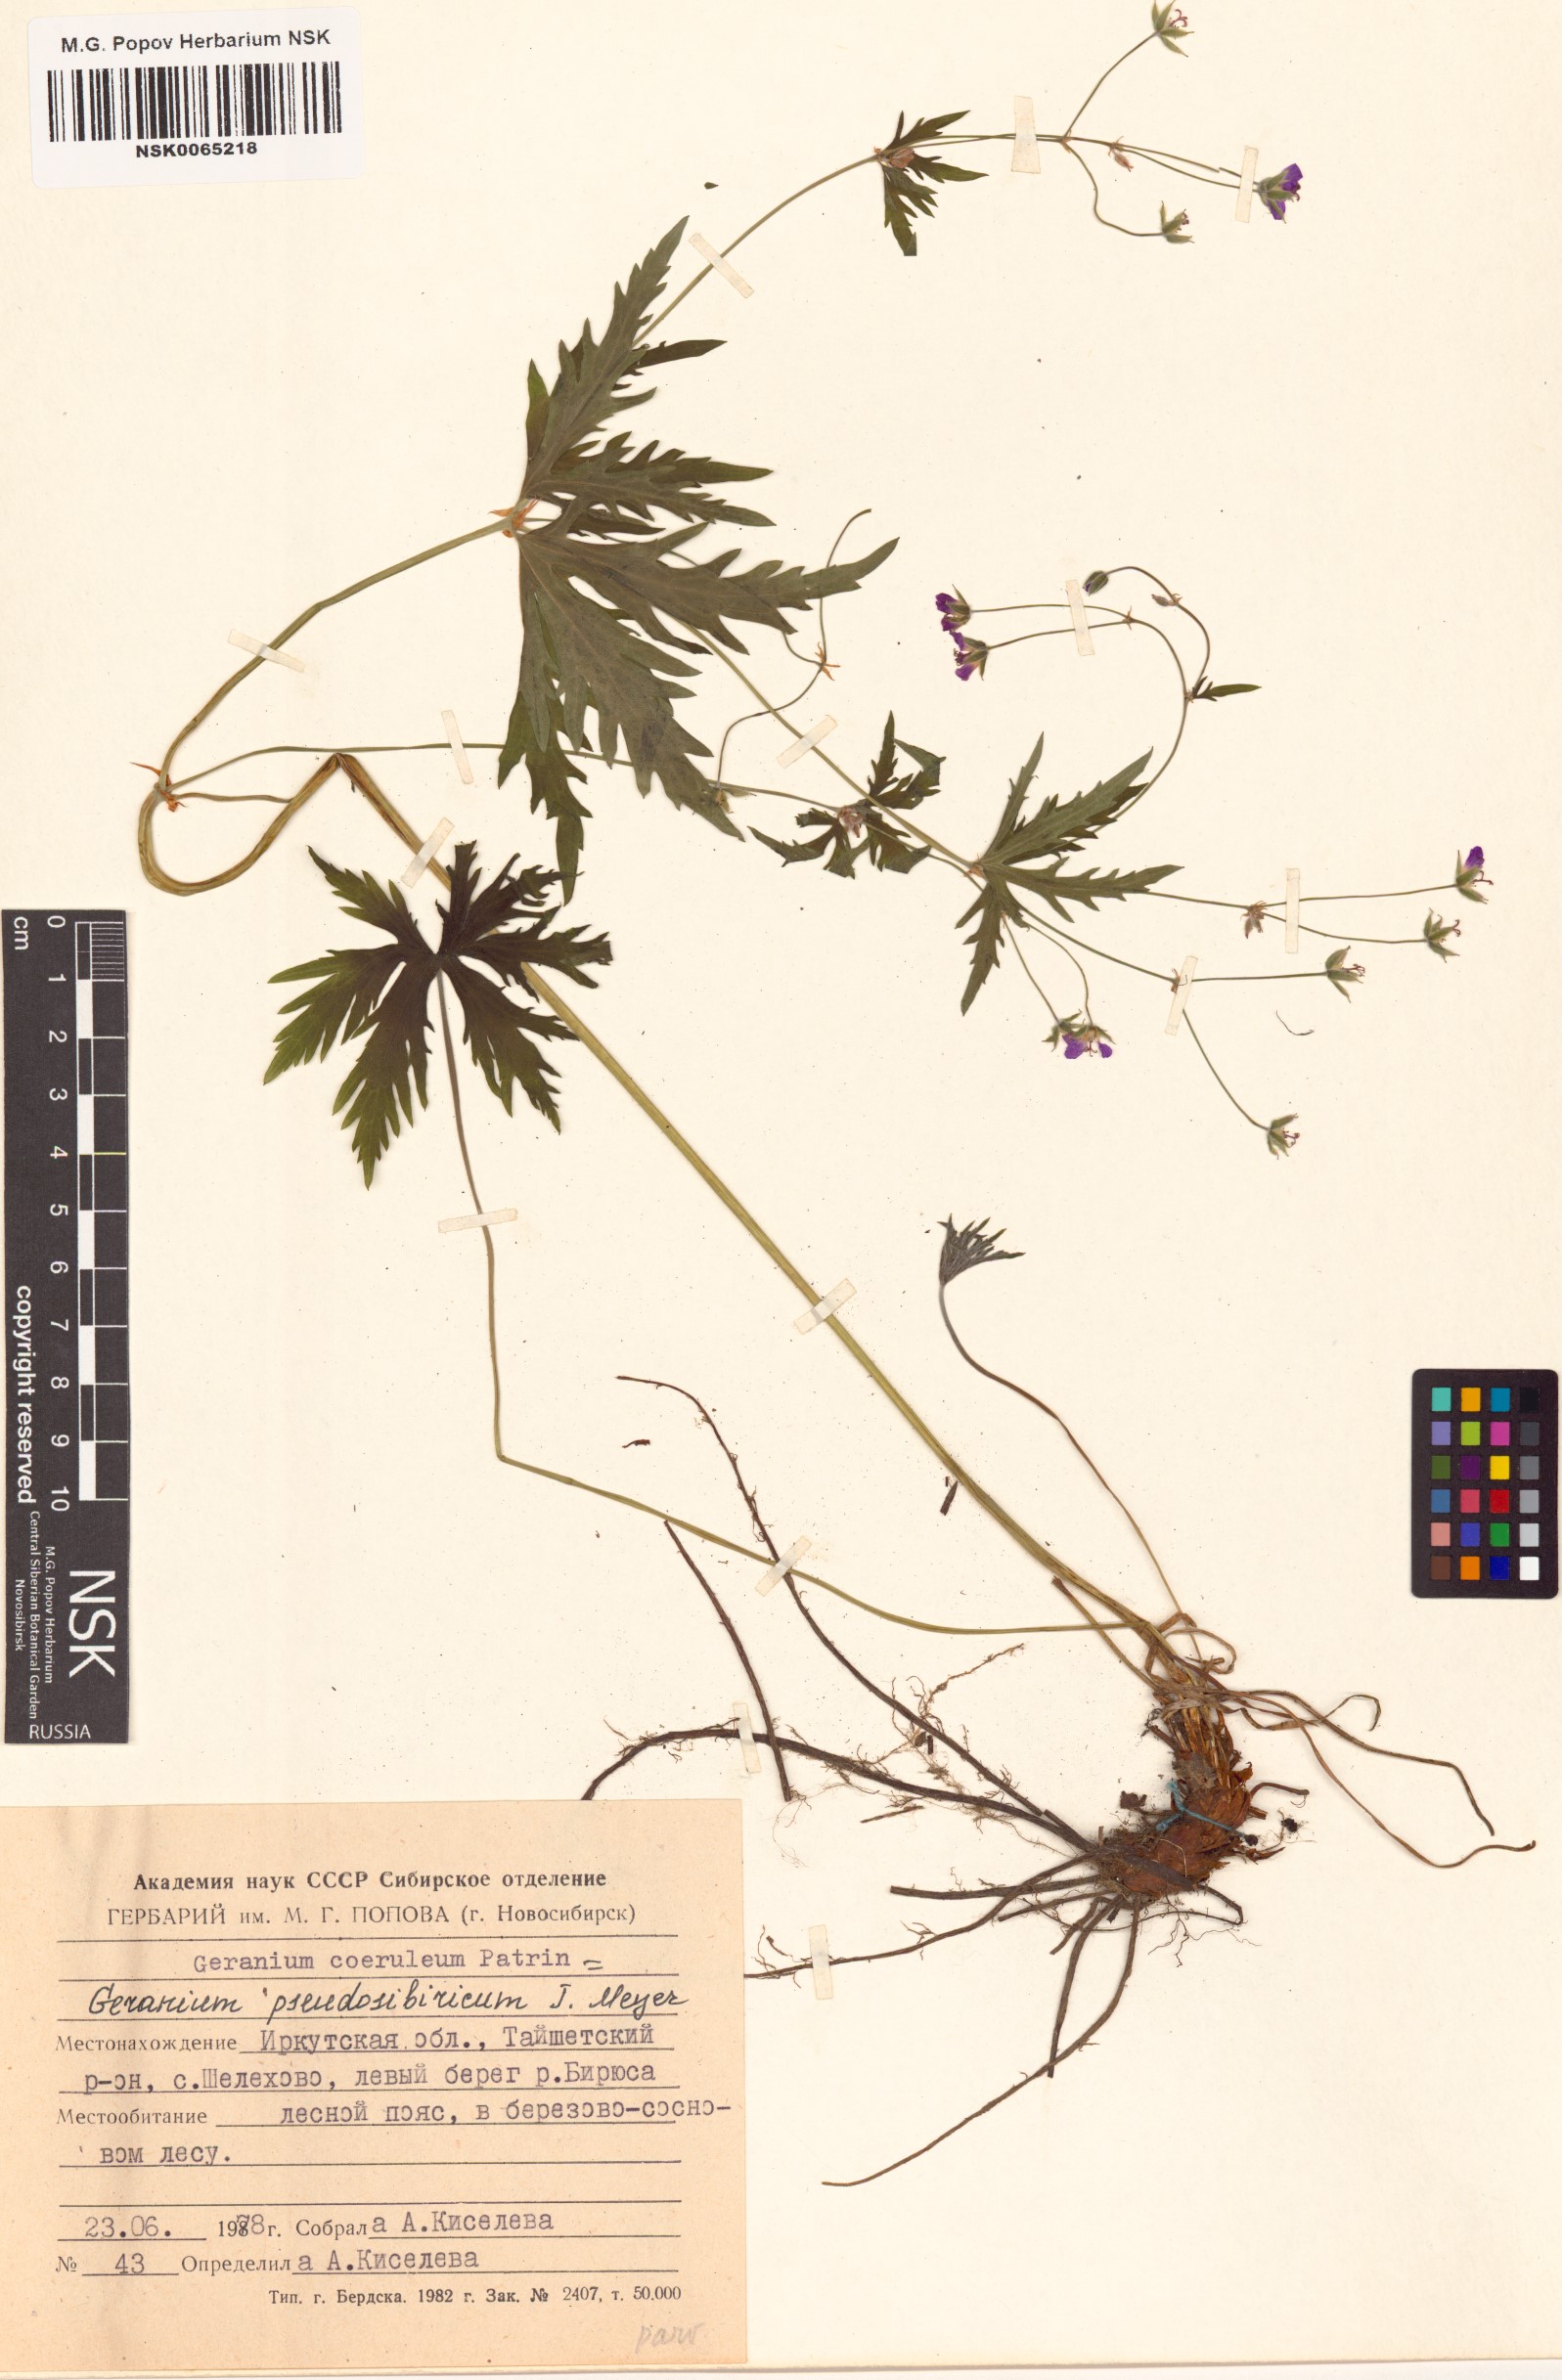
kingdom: Plantae
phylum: Tracheophyta
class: Magnoliopsida
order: Geraniales
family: Geraniaceae
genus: Geranium
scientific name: Geranium pseudosibiricum
